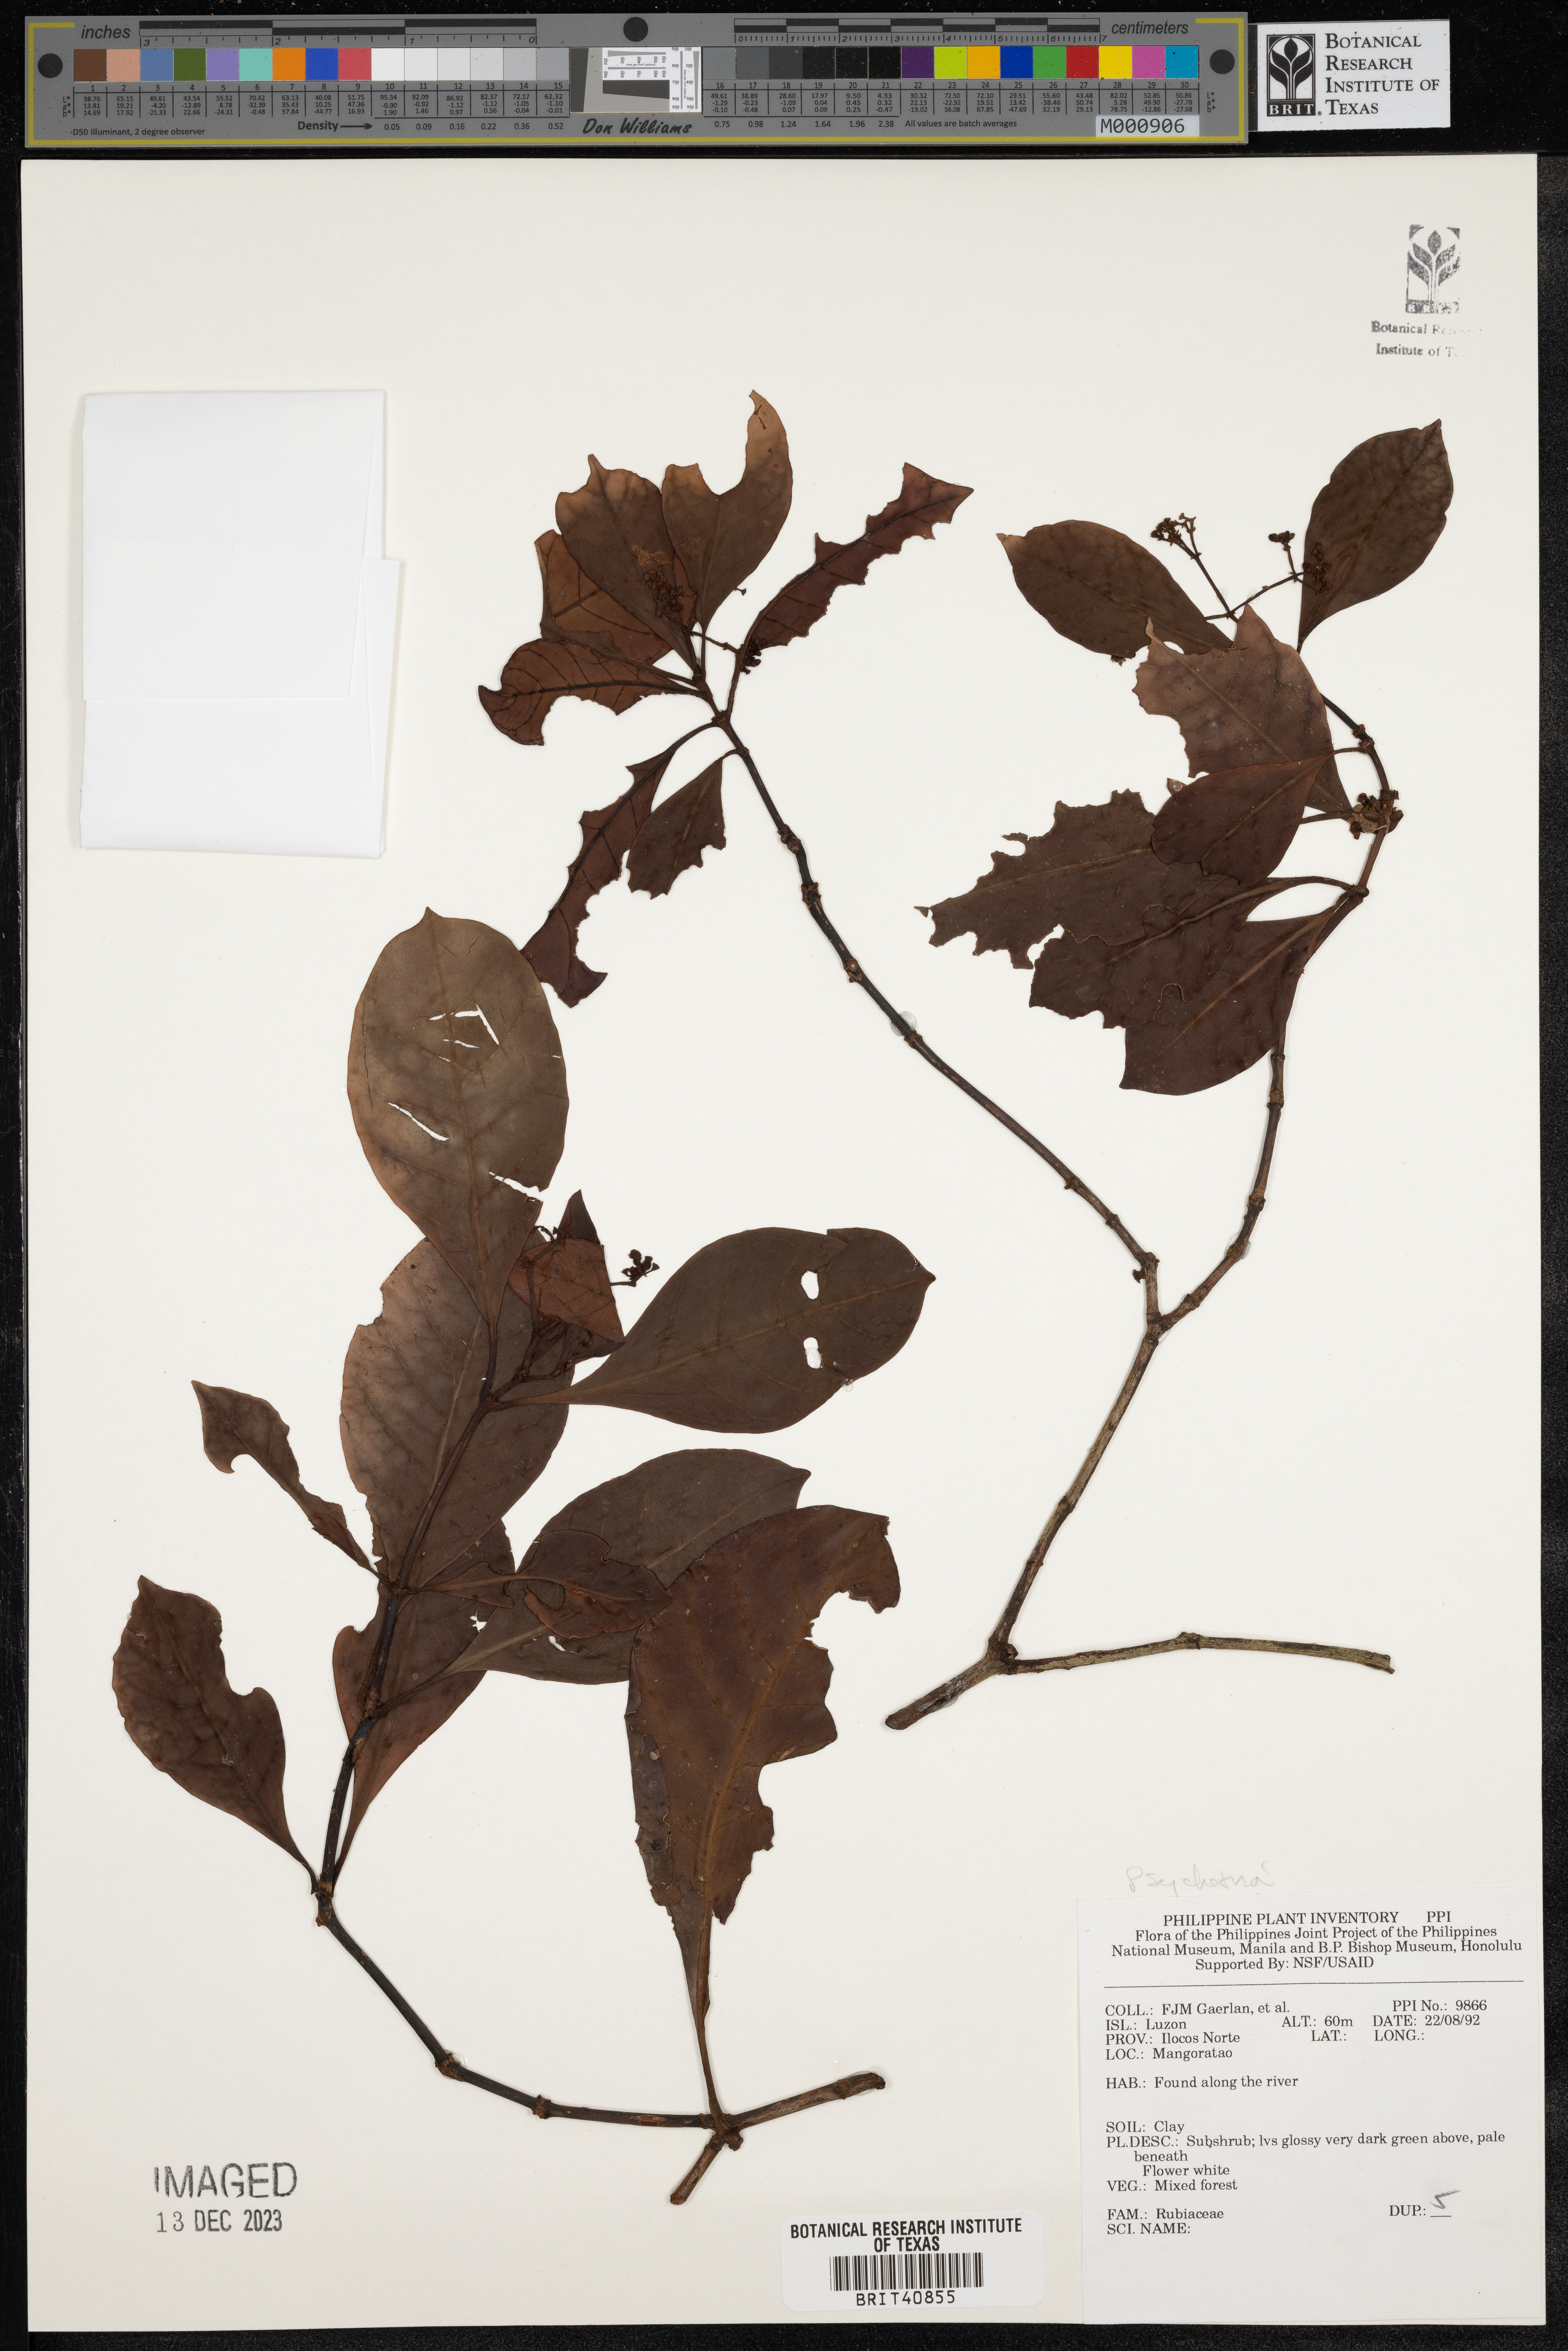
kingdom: Plantae
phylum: Tracheophyta
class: Magnoliopsida
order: Gentianales
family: Rubiaceae
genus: Psychotria
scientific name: Psychotria
